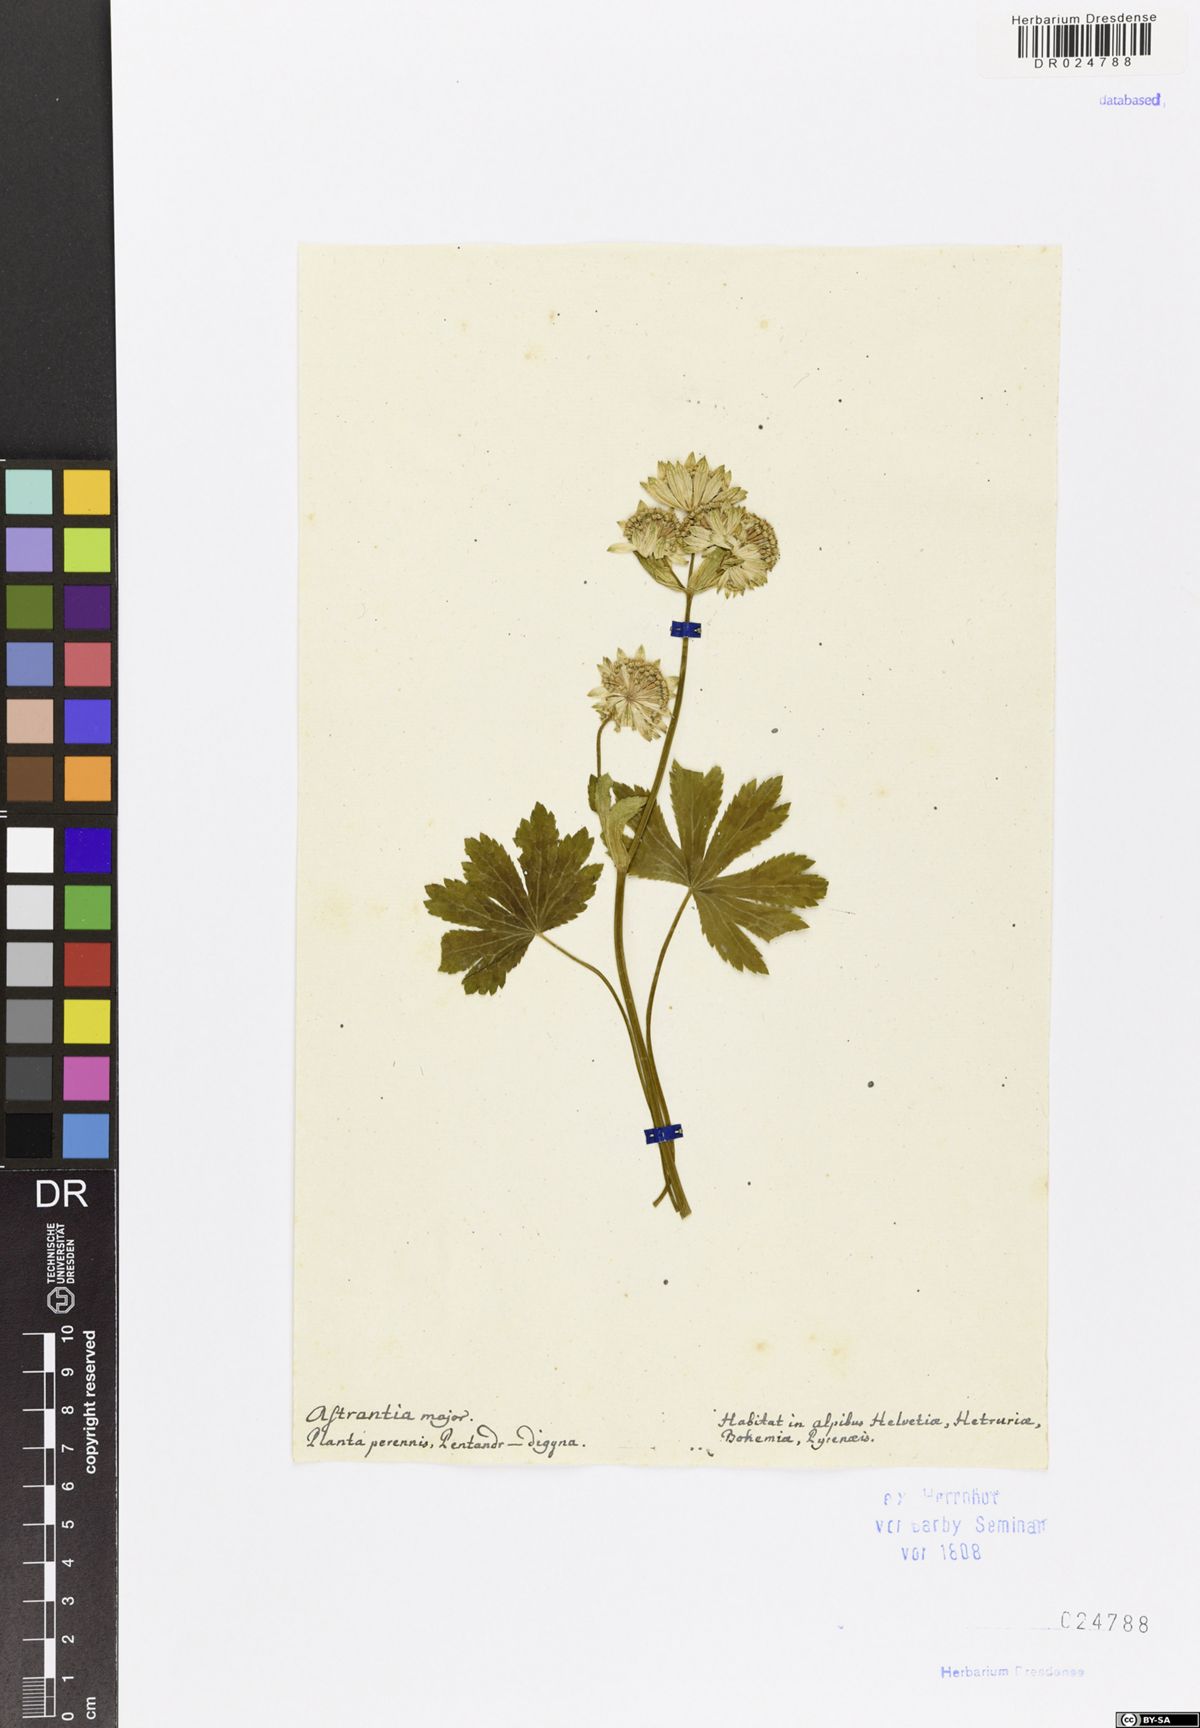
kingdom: Plantae
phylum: Tracheophyta
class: Magnoliopsida
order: Apiales
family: Apiaceae
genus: Astrantia
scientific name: Astrantia major
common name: Greater masterwort
